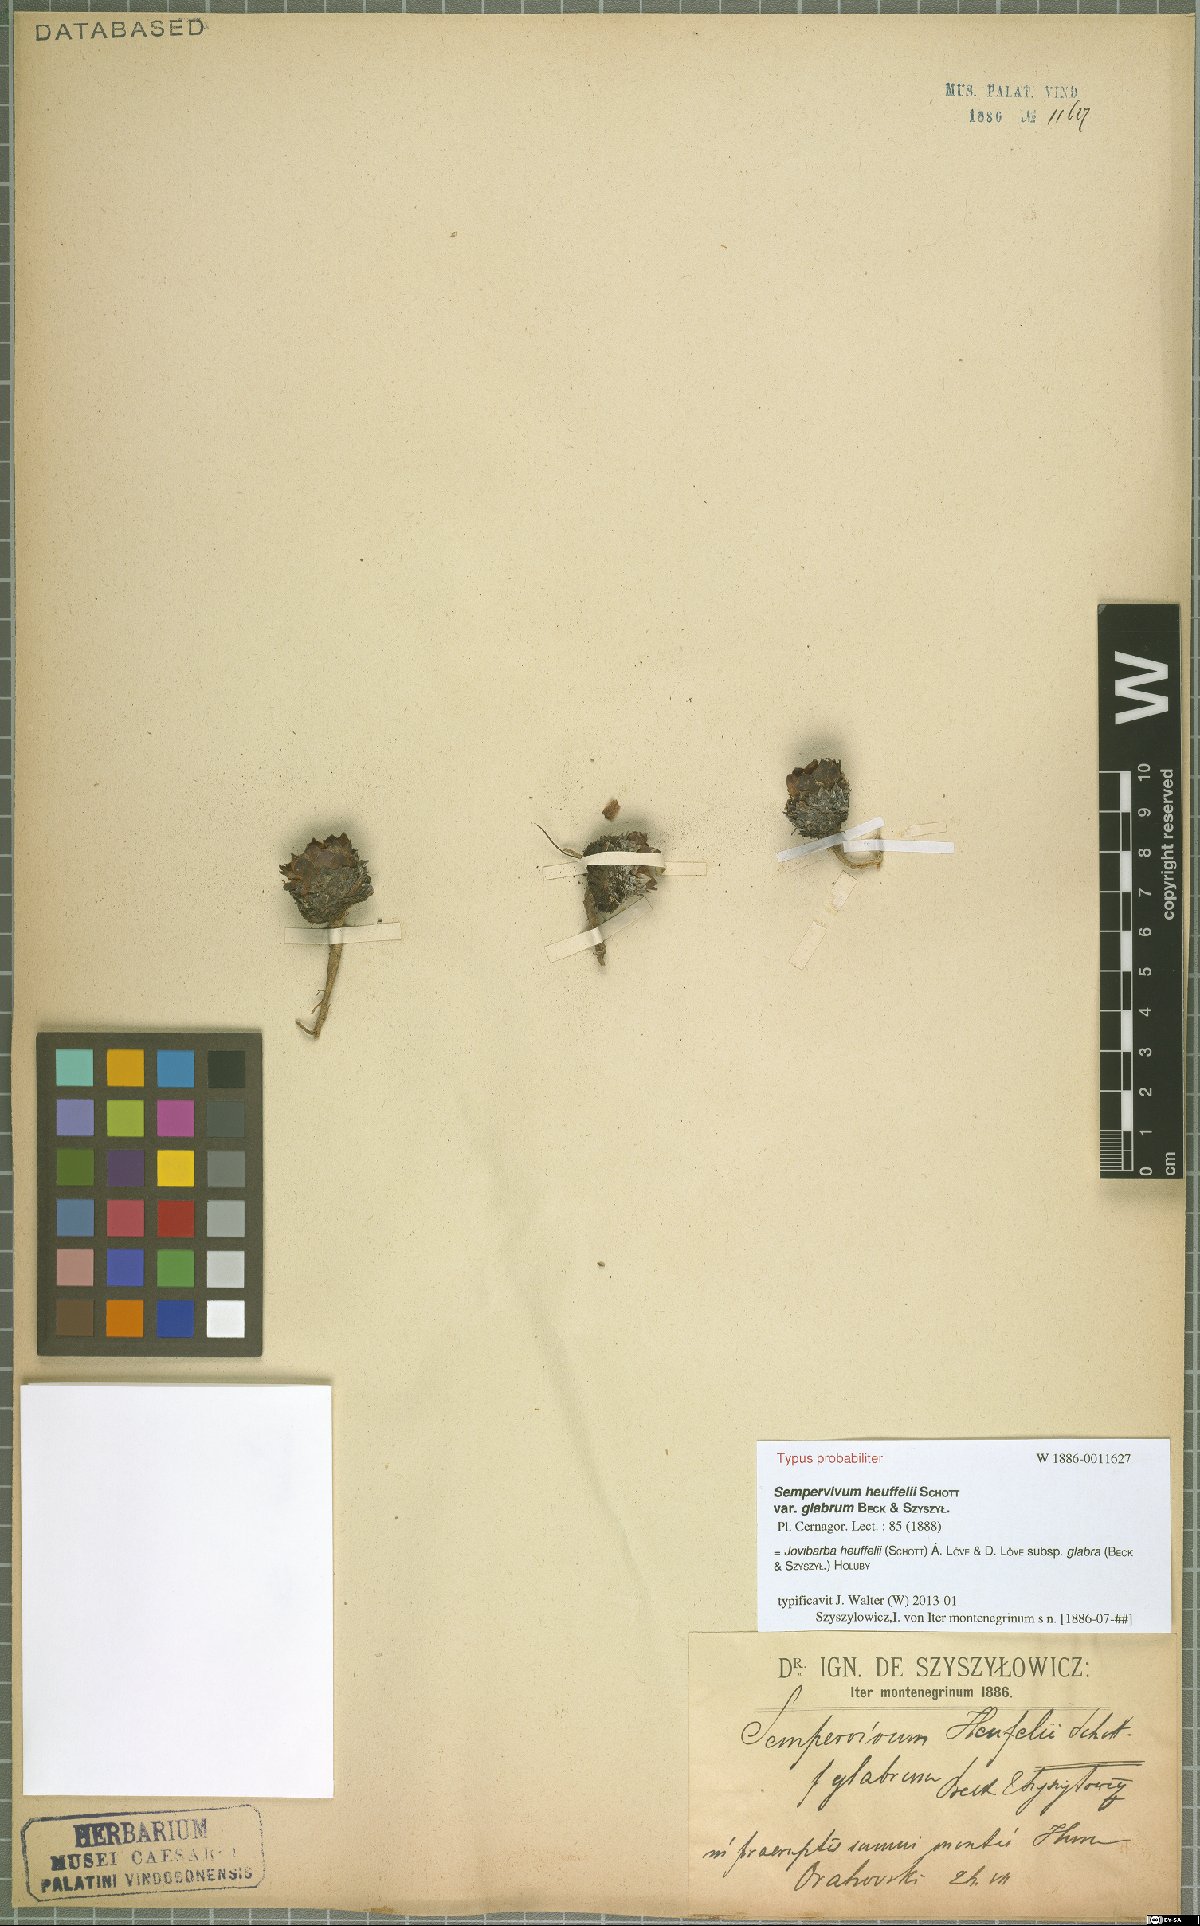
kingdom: Plantae
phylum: Tracheophyta
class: Magnoliopsida
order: Saxifragales
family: Crassulaceae
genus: Sempervivum
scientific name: Sempervivum heuffelii
